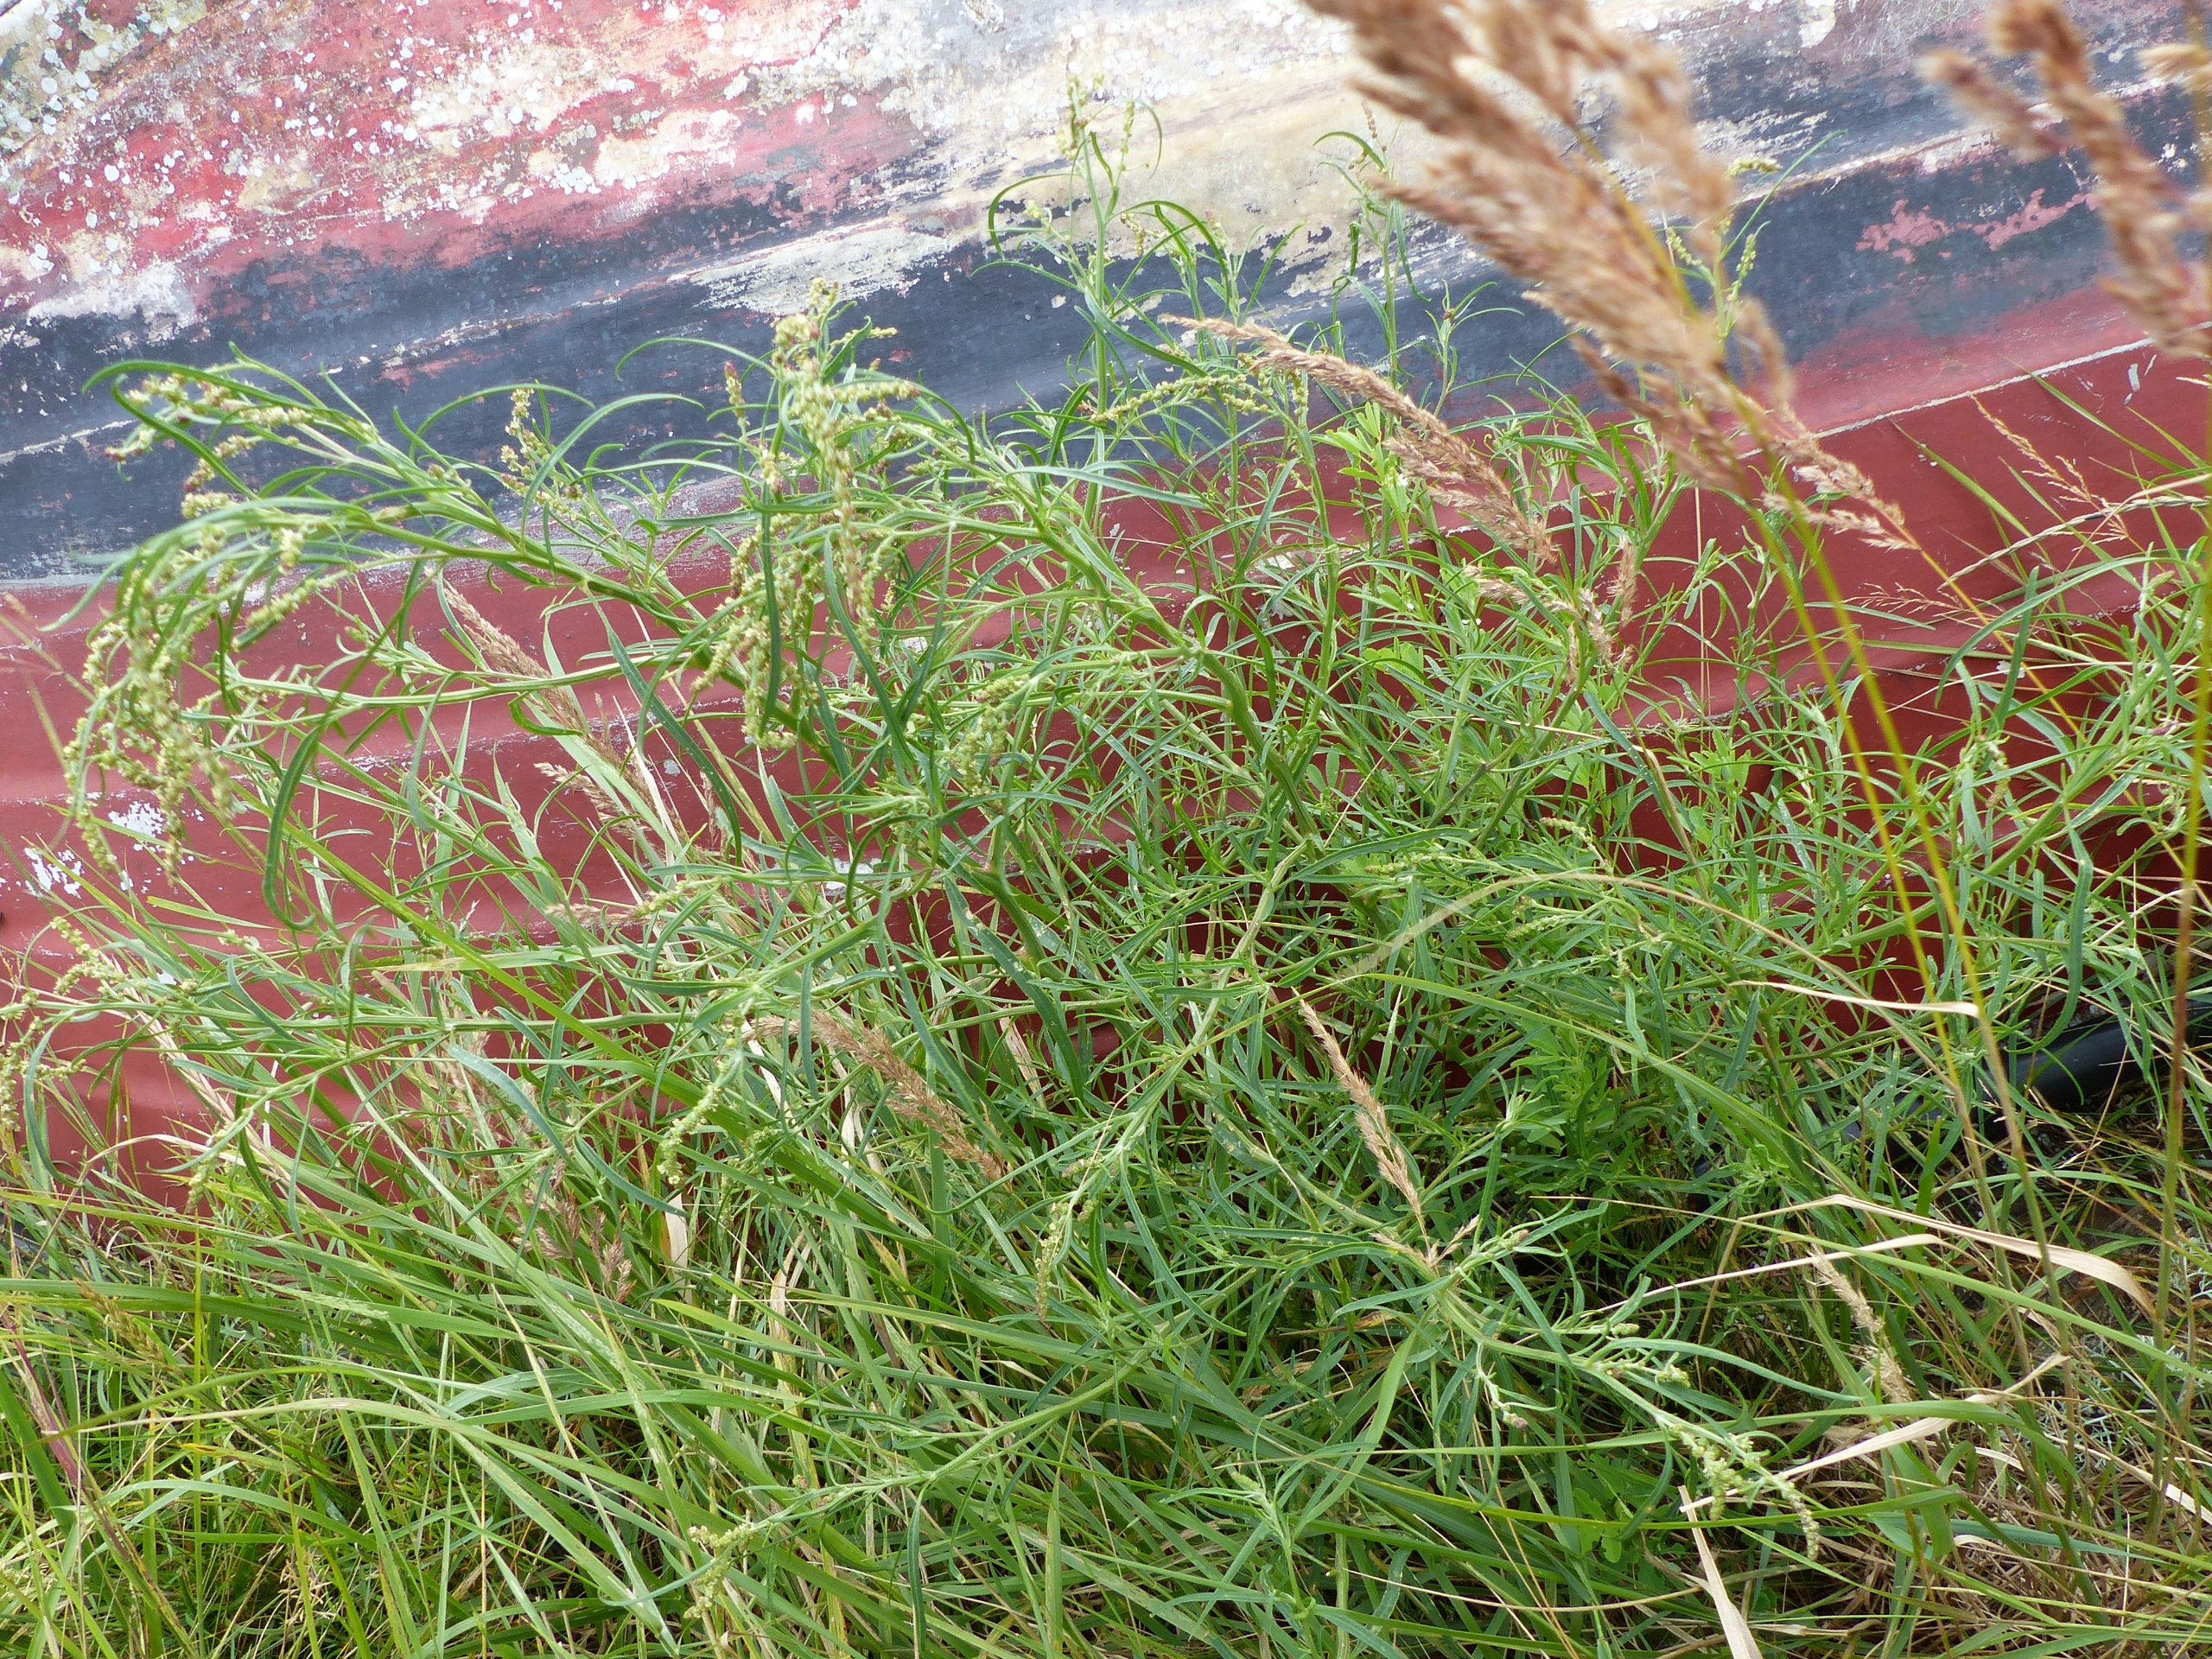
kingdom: Plantae
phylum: Tracheophyta
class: Magnoliopsida
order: Caryophyllales
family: Amaranthaceae
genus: Atriplex
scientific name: Atriplex littoralis
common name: Strand-mælde
